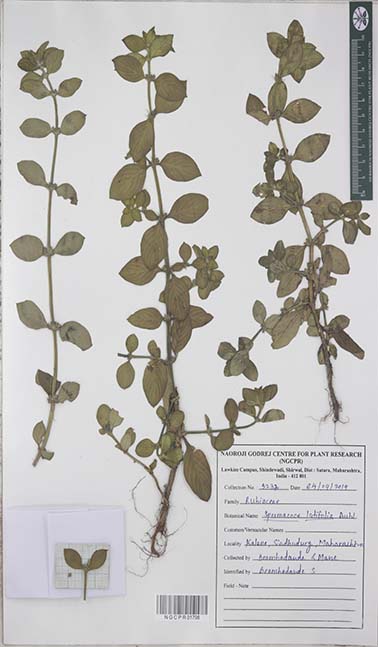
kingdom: Plantae
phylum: Tracheophyta
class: Magnoliopsida
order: Gentianales
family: Rubiaceae
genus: Spermacoce
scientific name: Spermacoce latifolia
